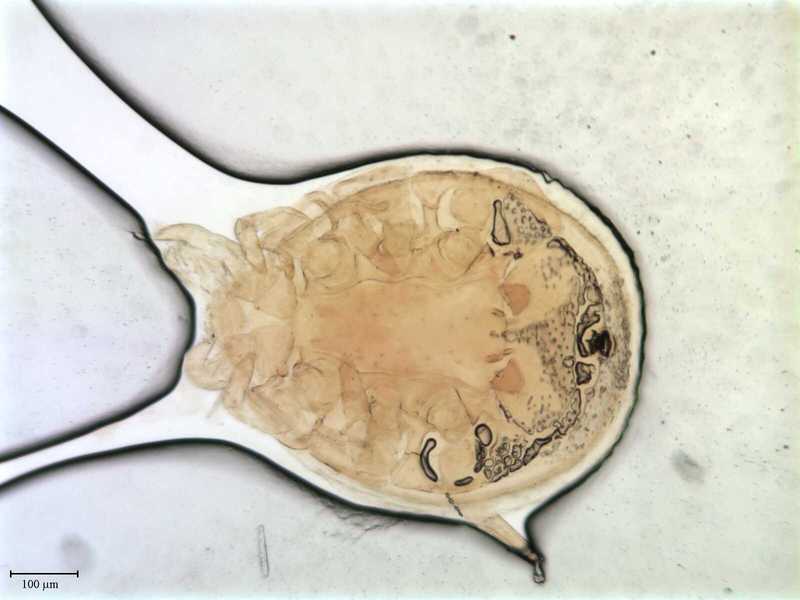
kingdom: Animalia
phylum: Arthropoda
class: Arachnida
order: Mesostigmata
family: Uropodidae
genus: Uropoda
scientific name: Uropoda spinosula
